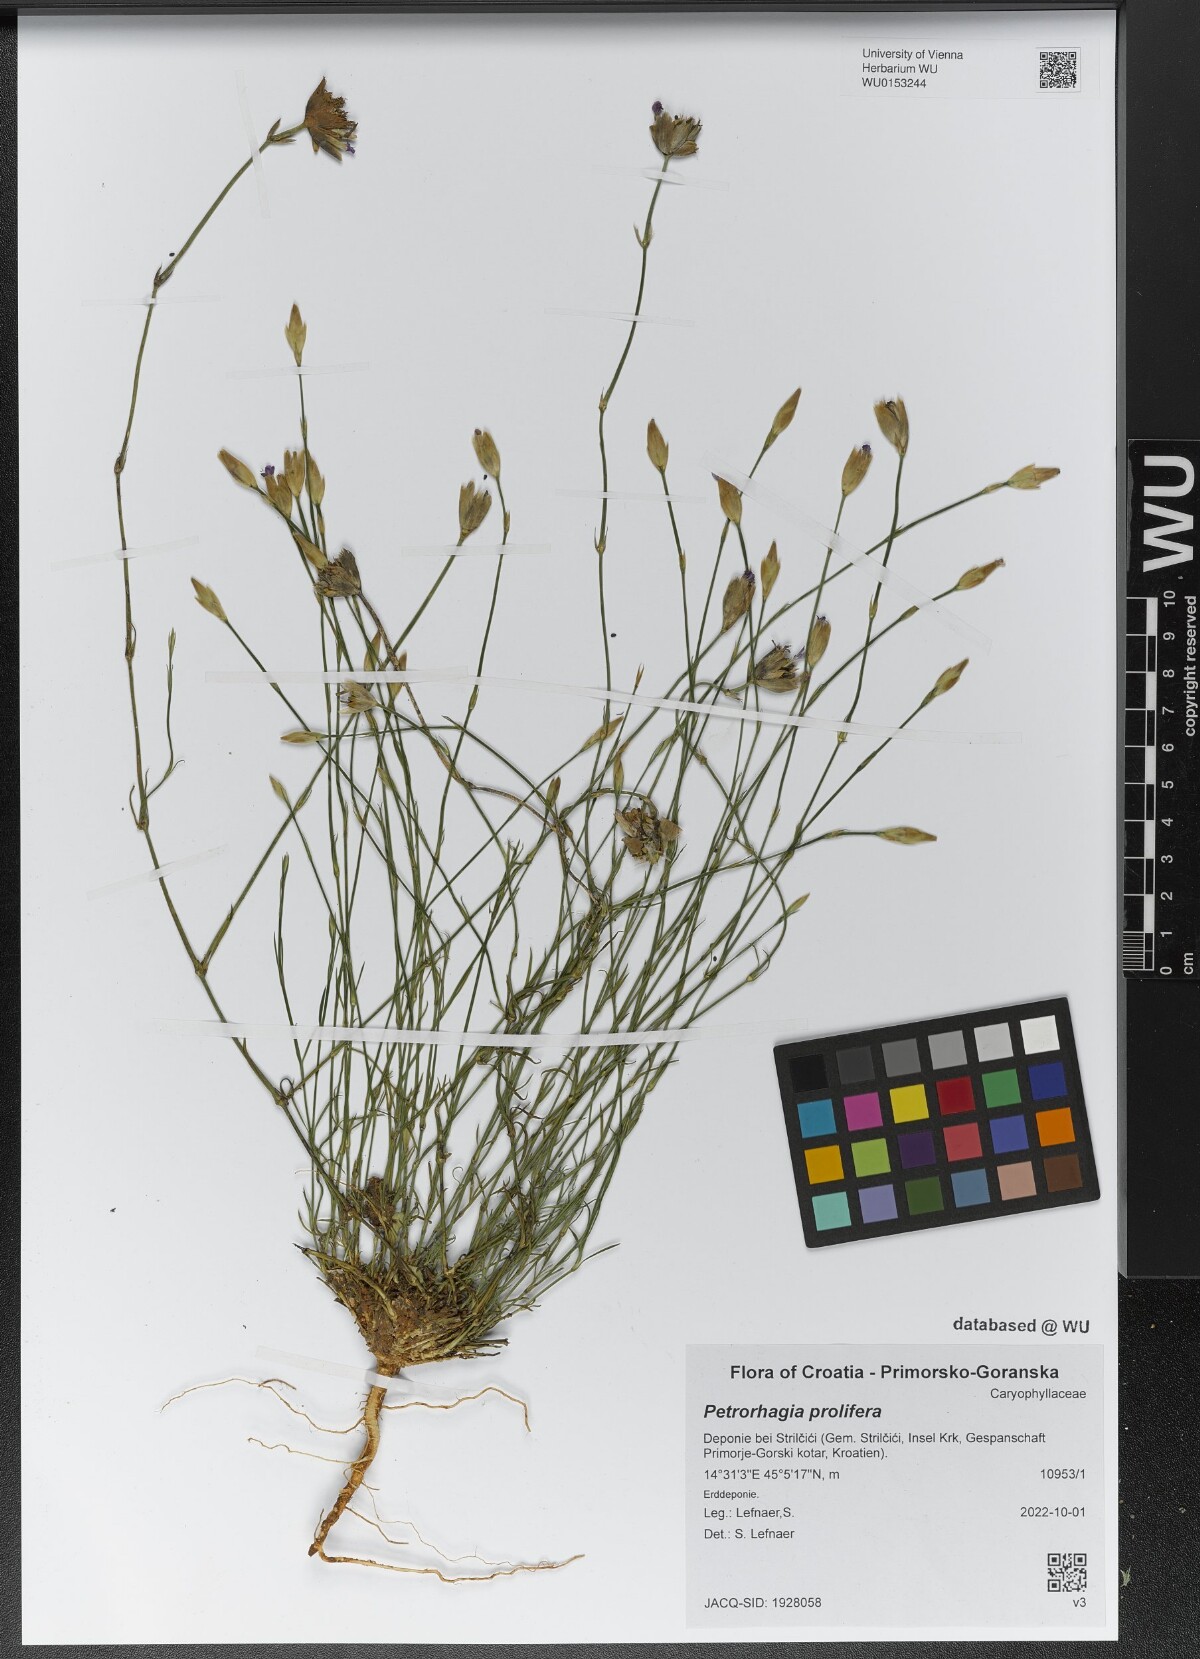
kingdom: Plantae
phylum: Tracheophyta
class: Magnoliopsida
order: Caryophyllales
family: Caryophyllaceae
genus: Petrorhagia
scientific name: Petrorhagia prolifera
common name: Proliferous pink
